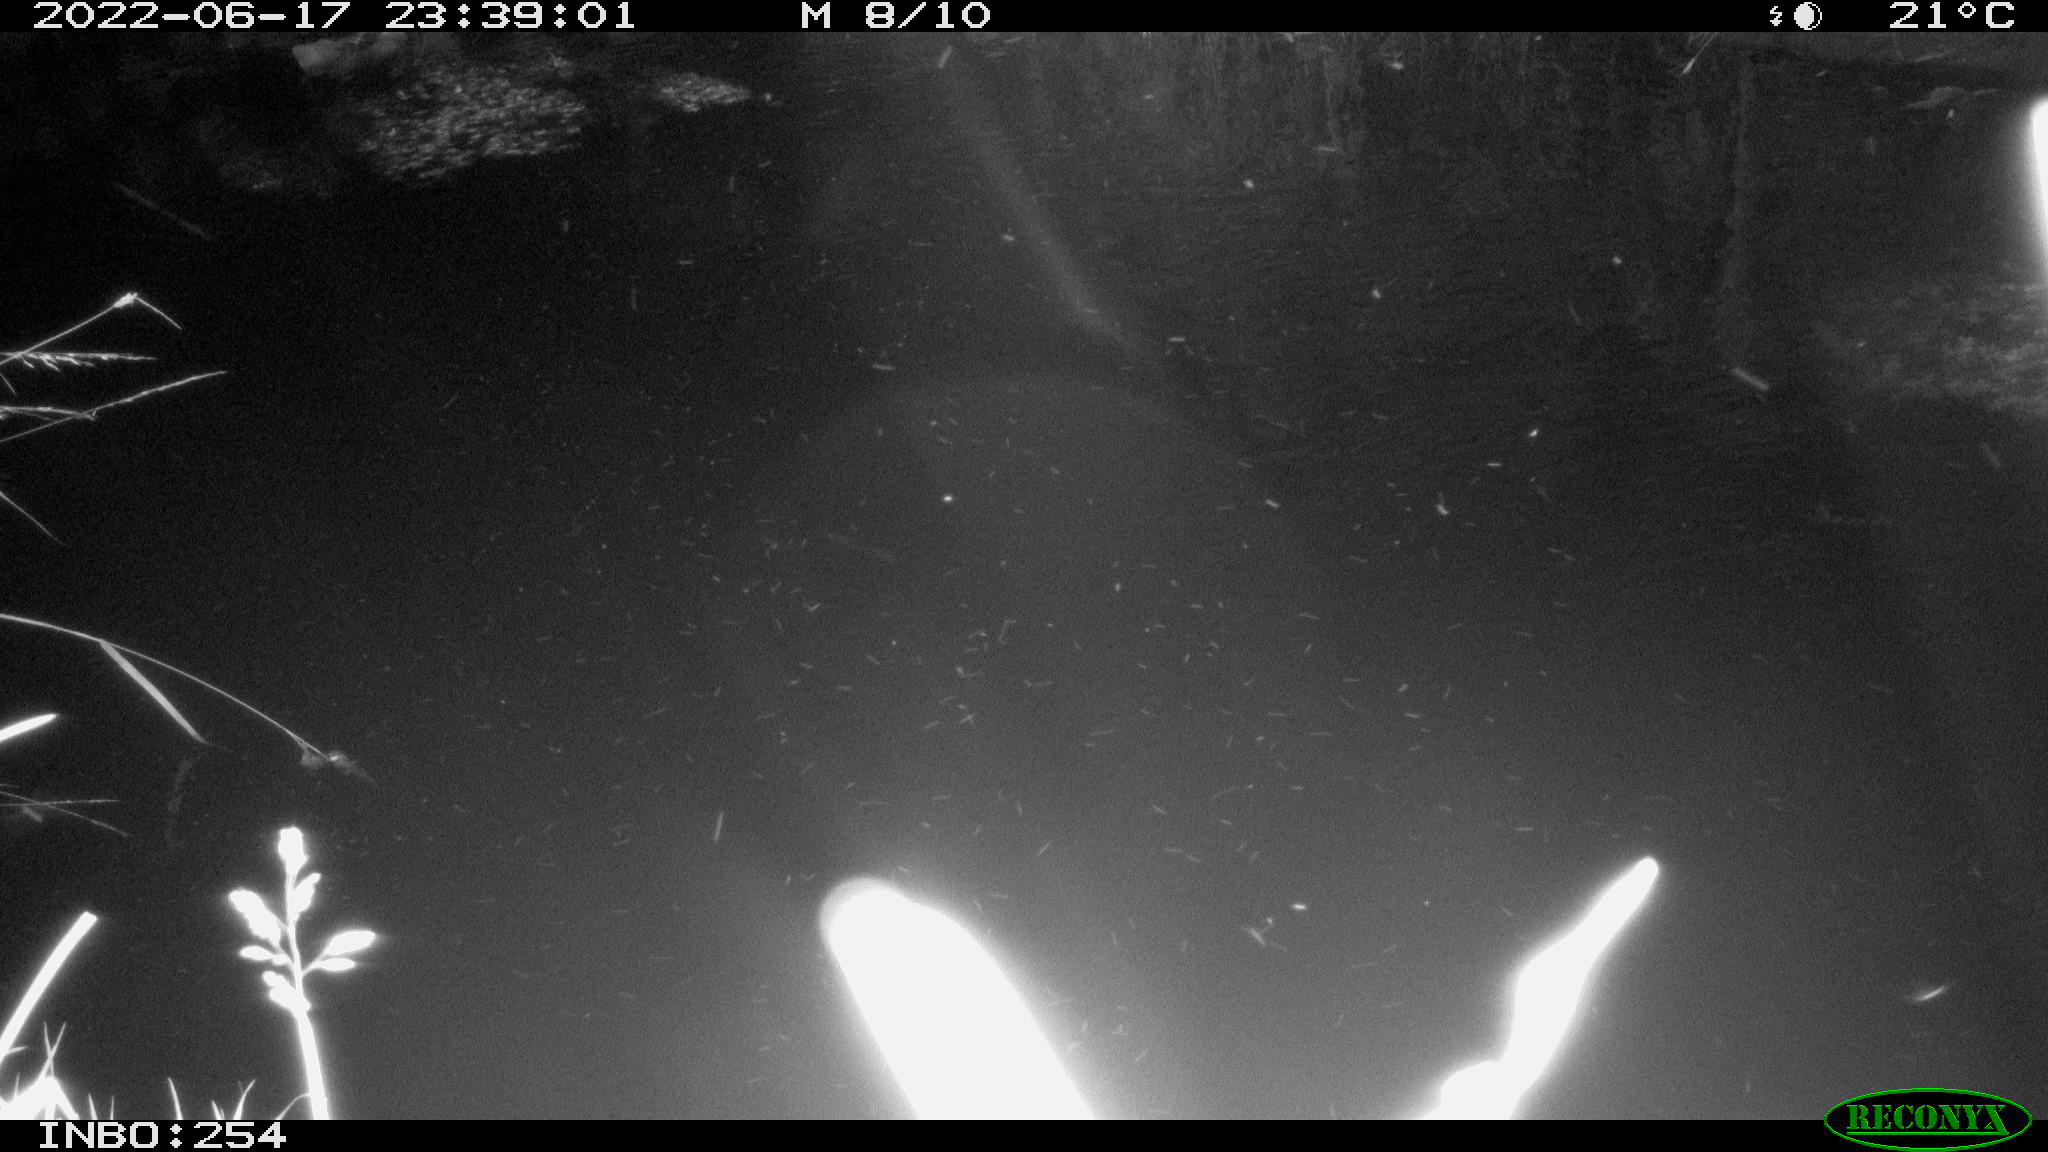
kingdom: Animalia
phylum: Chordata
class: Aves
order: Anseriformes
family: Anatidae
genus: Anas
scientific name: Anas platyrhynchos
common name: Mallard
